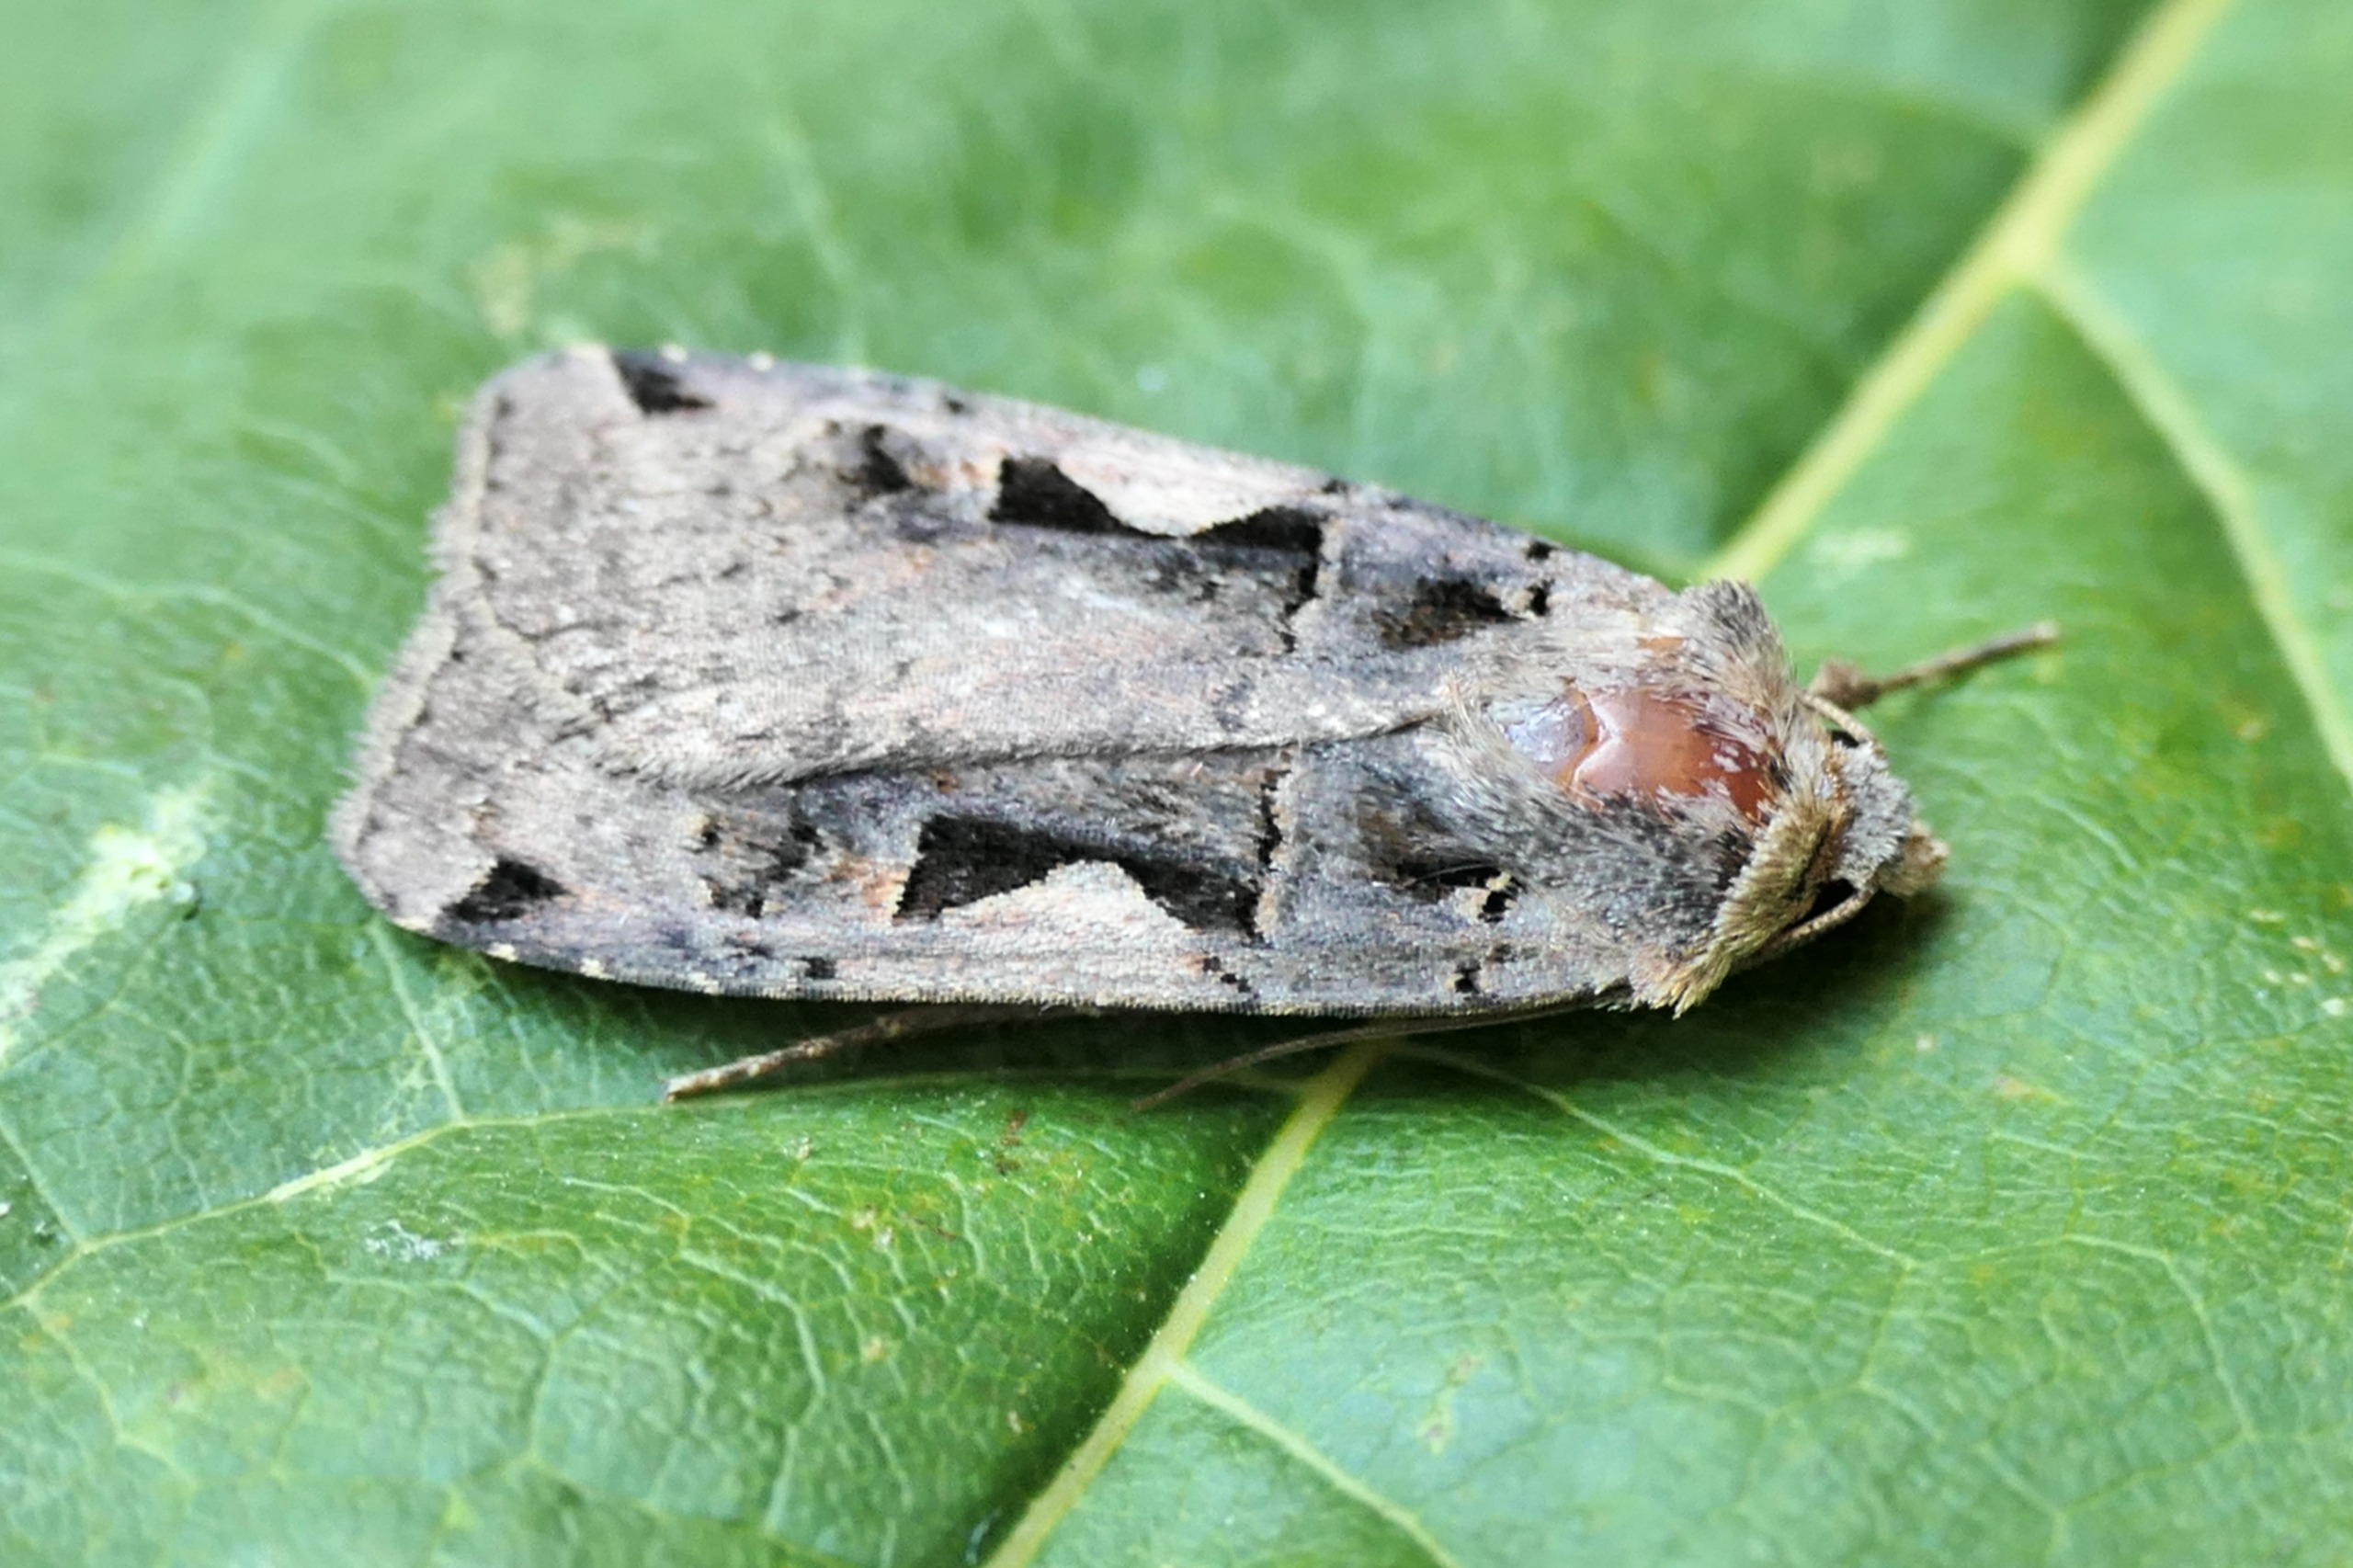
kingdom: Animalia
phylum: Arthropoda
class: Insecta
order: Lepidoptera
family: Noctuidae
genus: Xestia
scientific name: Xestia c-nigrum
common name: Det sorte c
